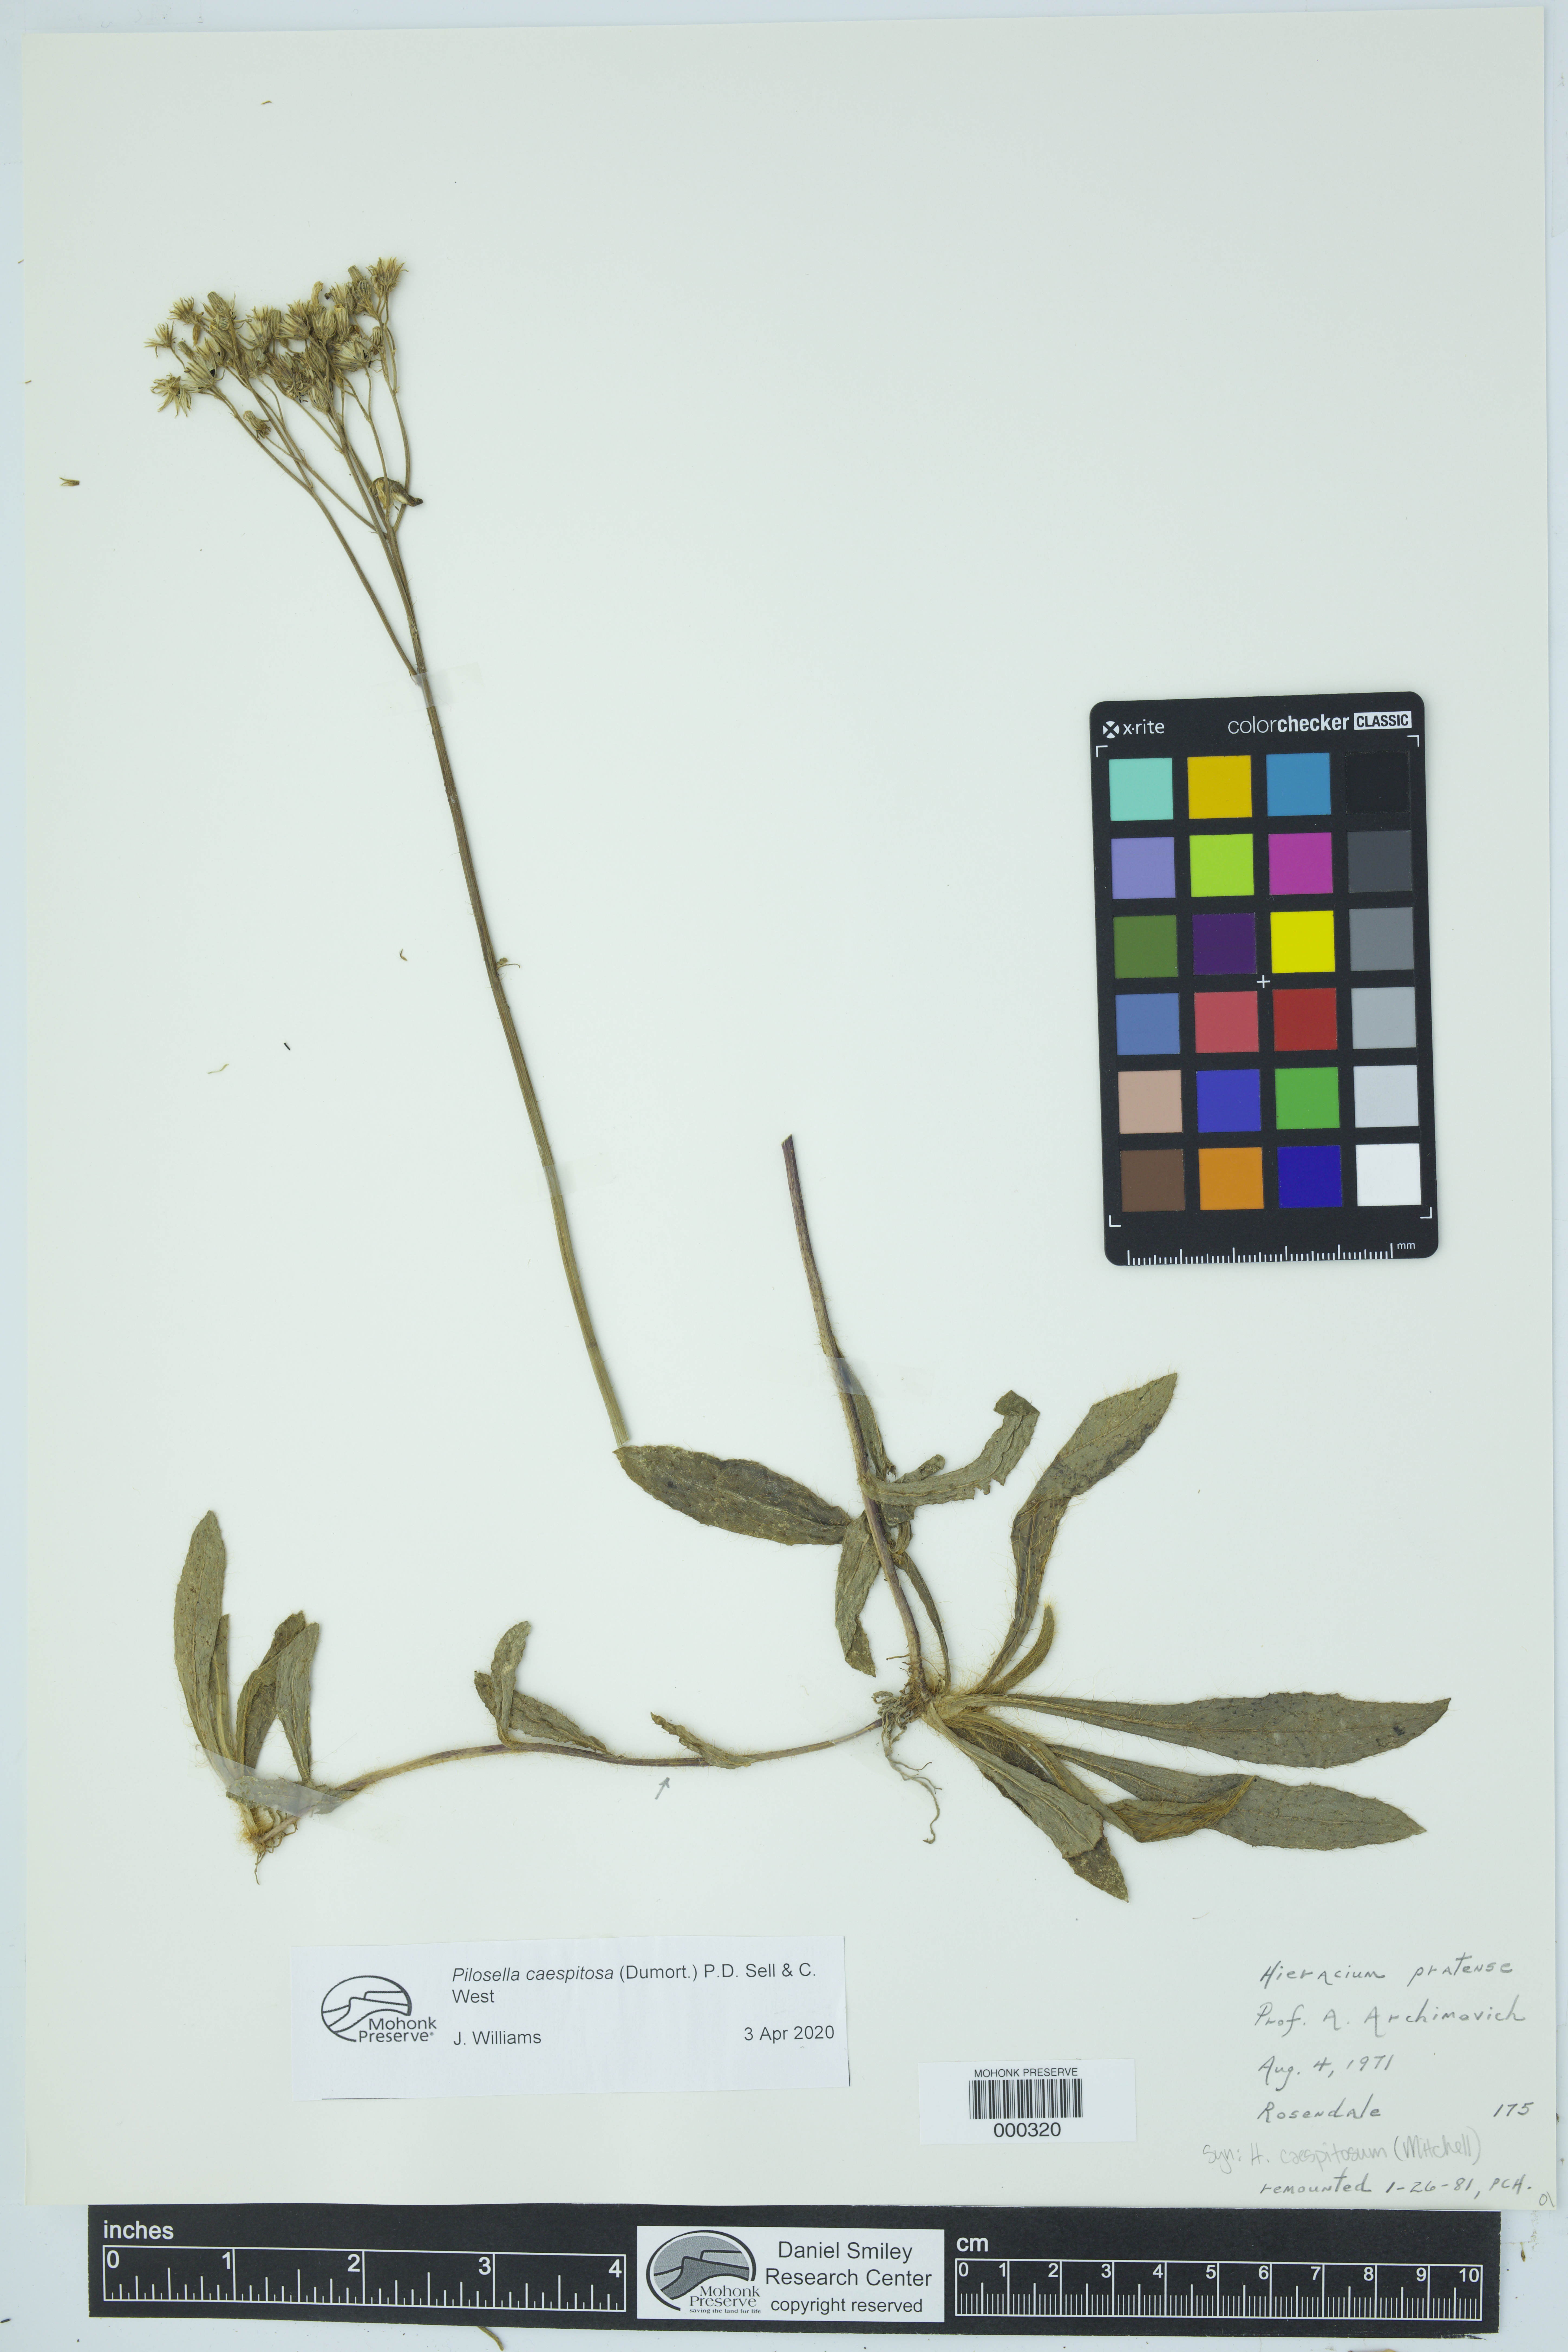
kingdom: Plantae
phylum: Tracheophyta
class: Magnoliopsida
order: Asterales
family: Asteraceae
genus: Pilosella
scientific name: Pilosella caespitosa
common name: Yellow fox-and-cubs
